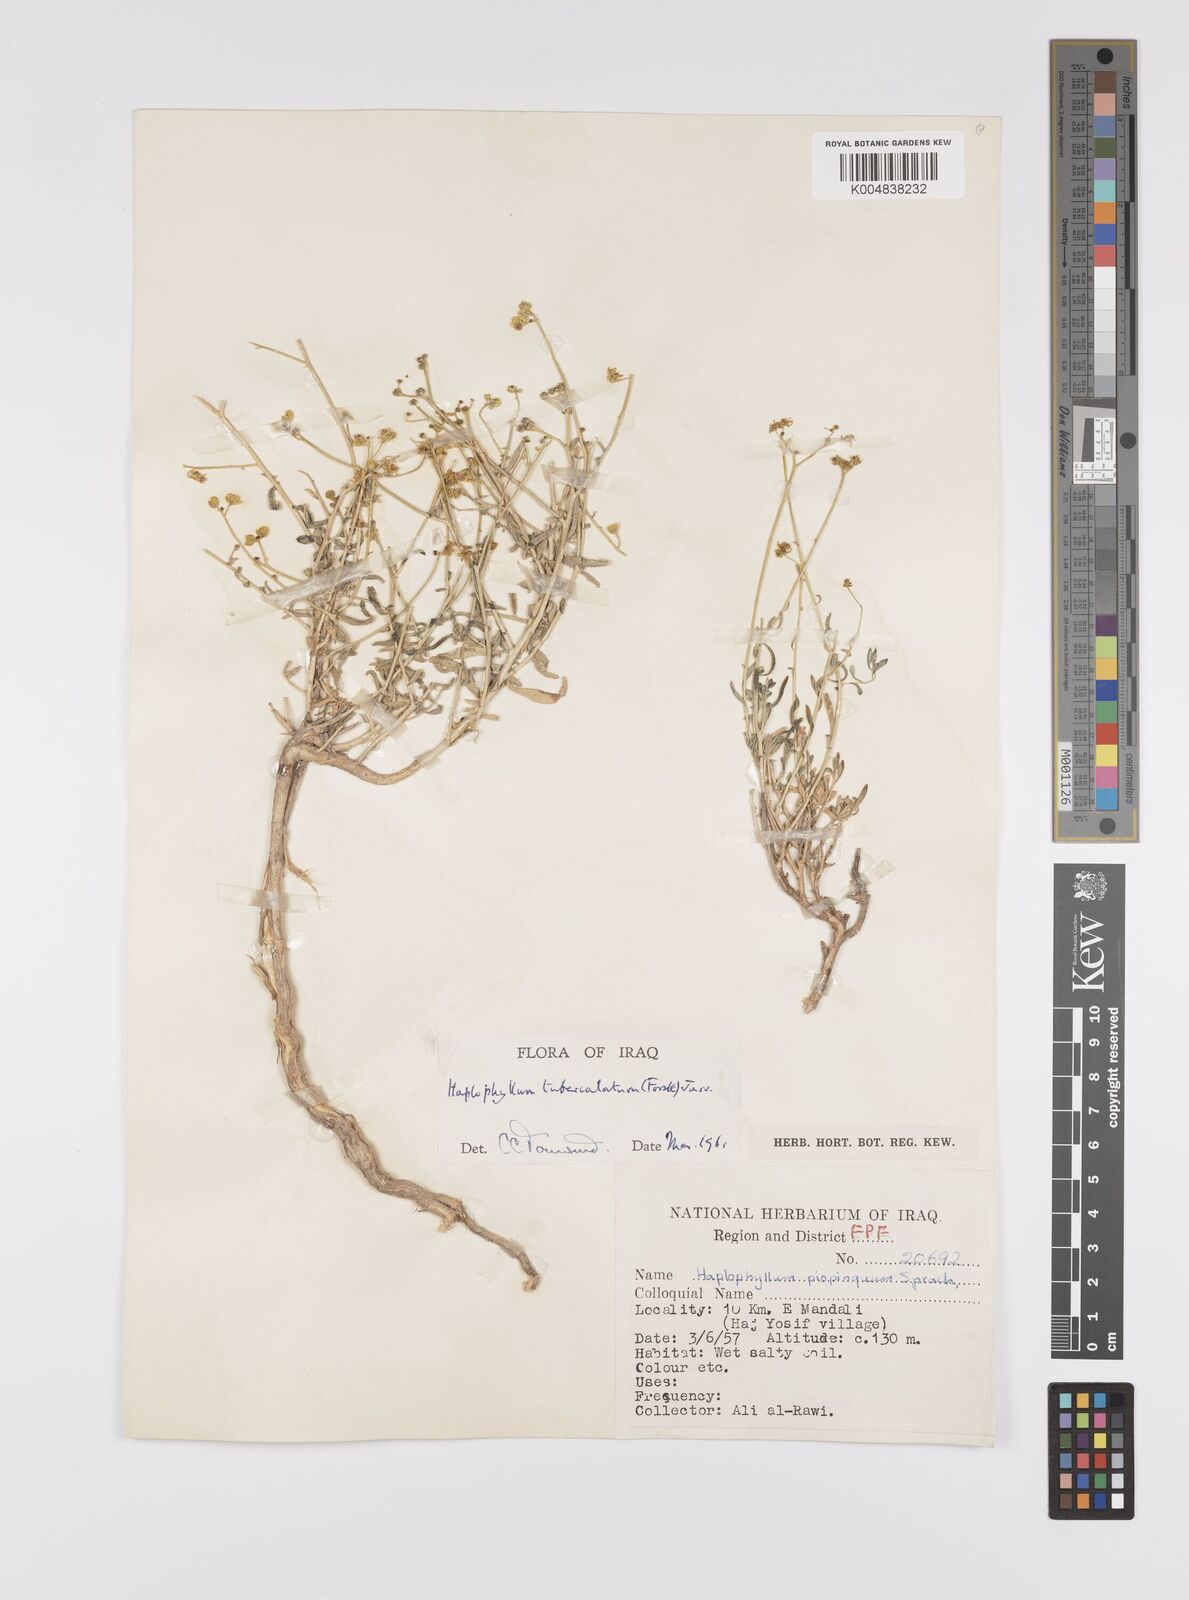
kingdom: Plantae
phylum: Tracheophyta
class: Magnoliopsida
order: Sapindales
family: Rutaceae
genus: Haplophyllum
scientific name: Haplophyllum tuberculatum
